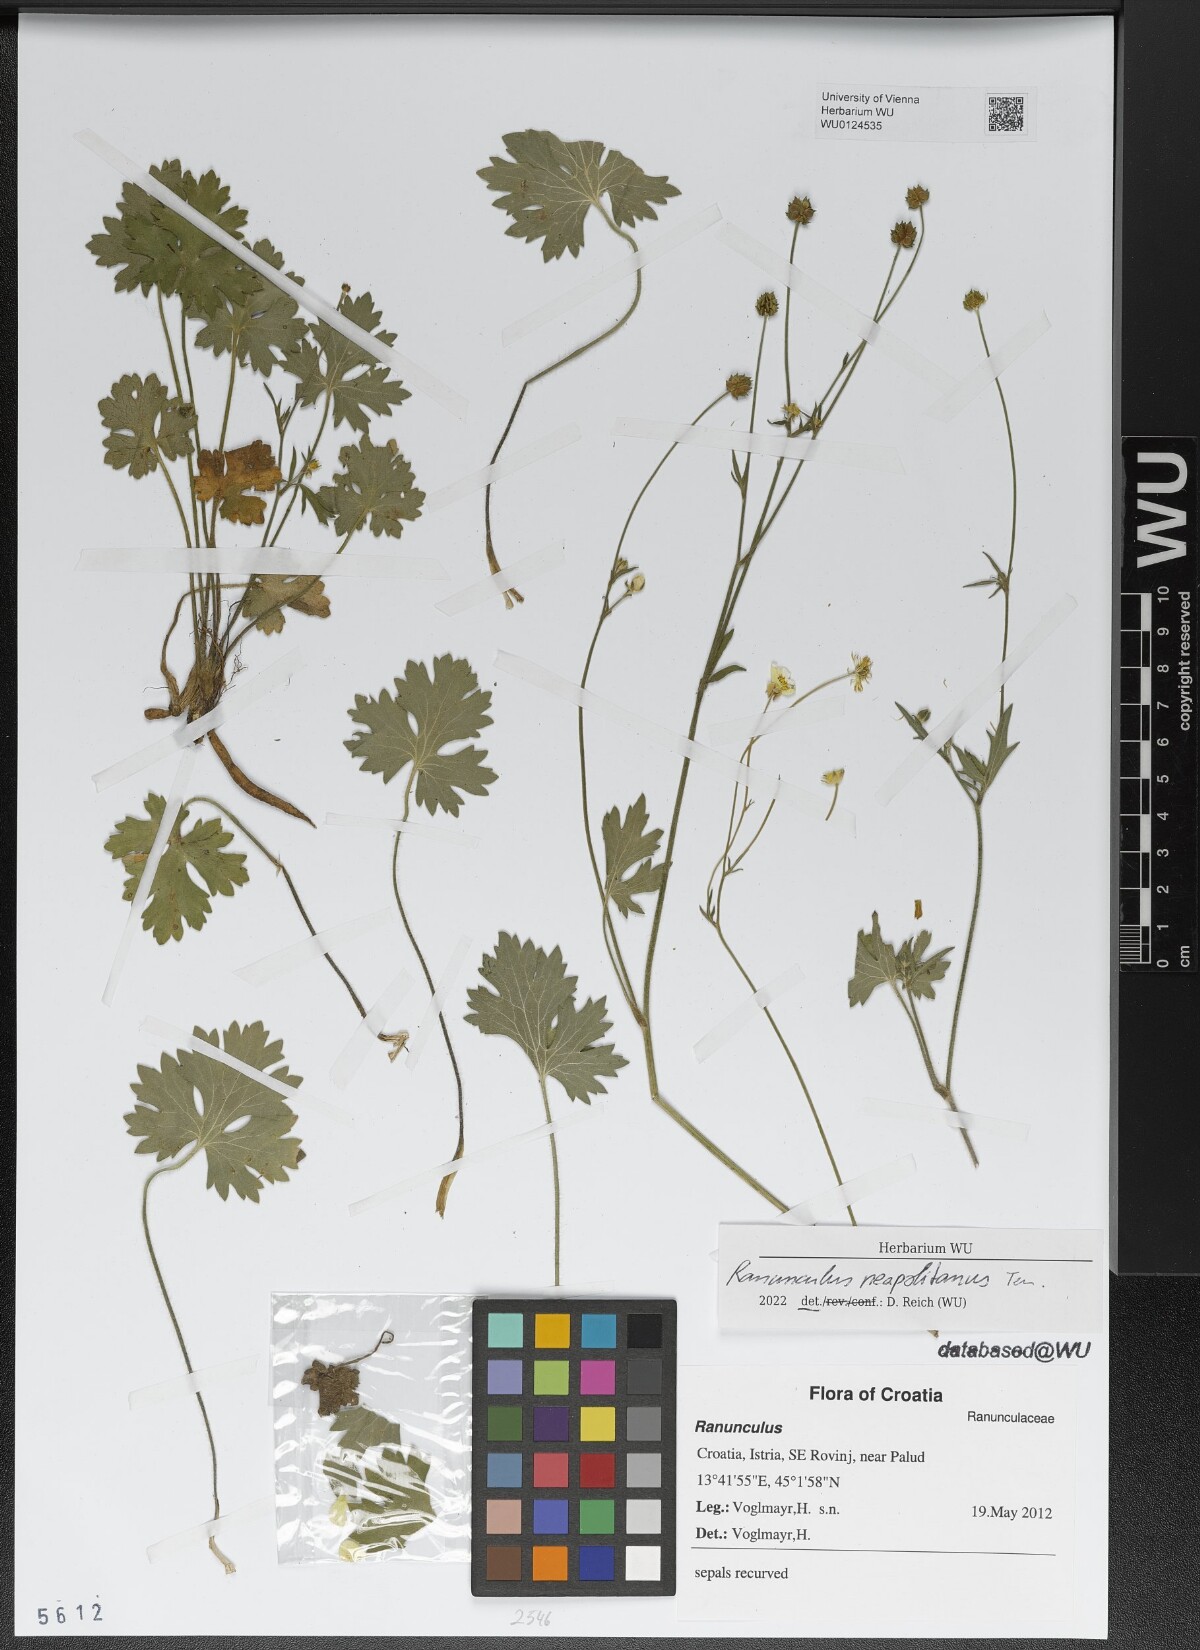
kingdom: Plantae
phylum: Tracheophyta
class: Magnoliopsida
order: Ranunculales
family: Ranunculaceae
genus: Ranunculus
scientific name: Ranunculus neapolitanus
